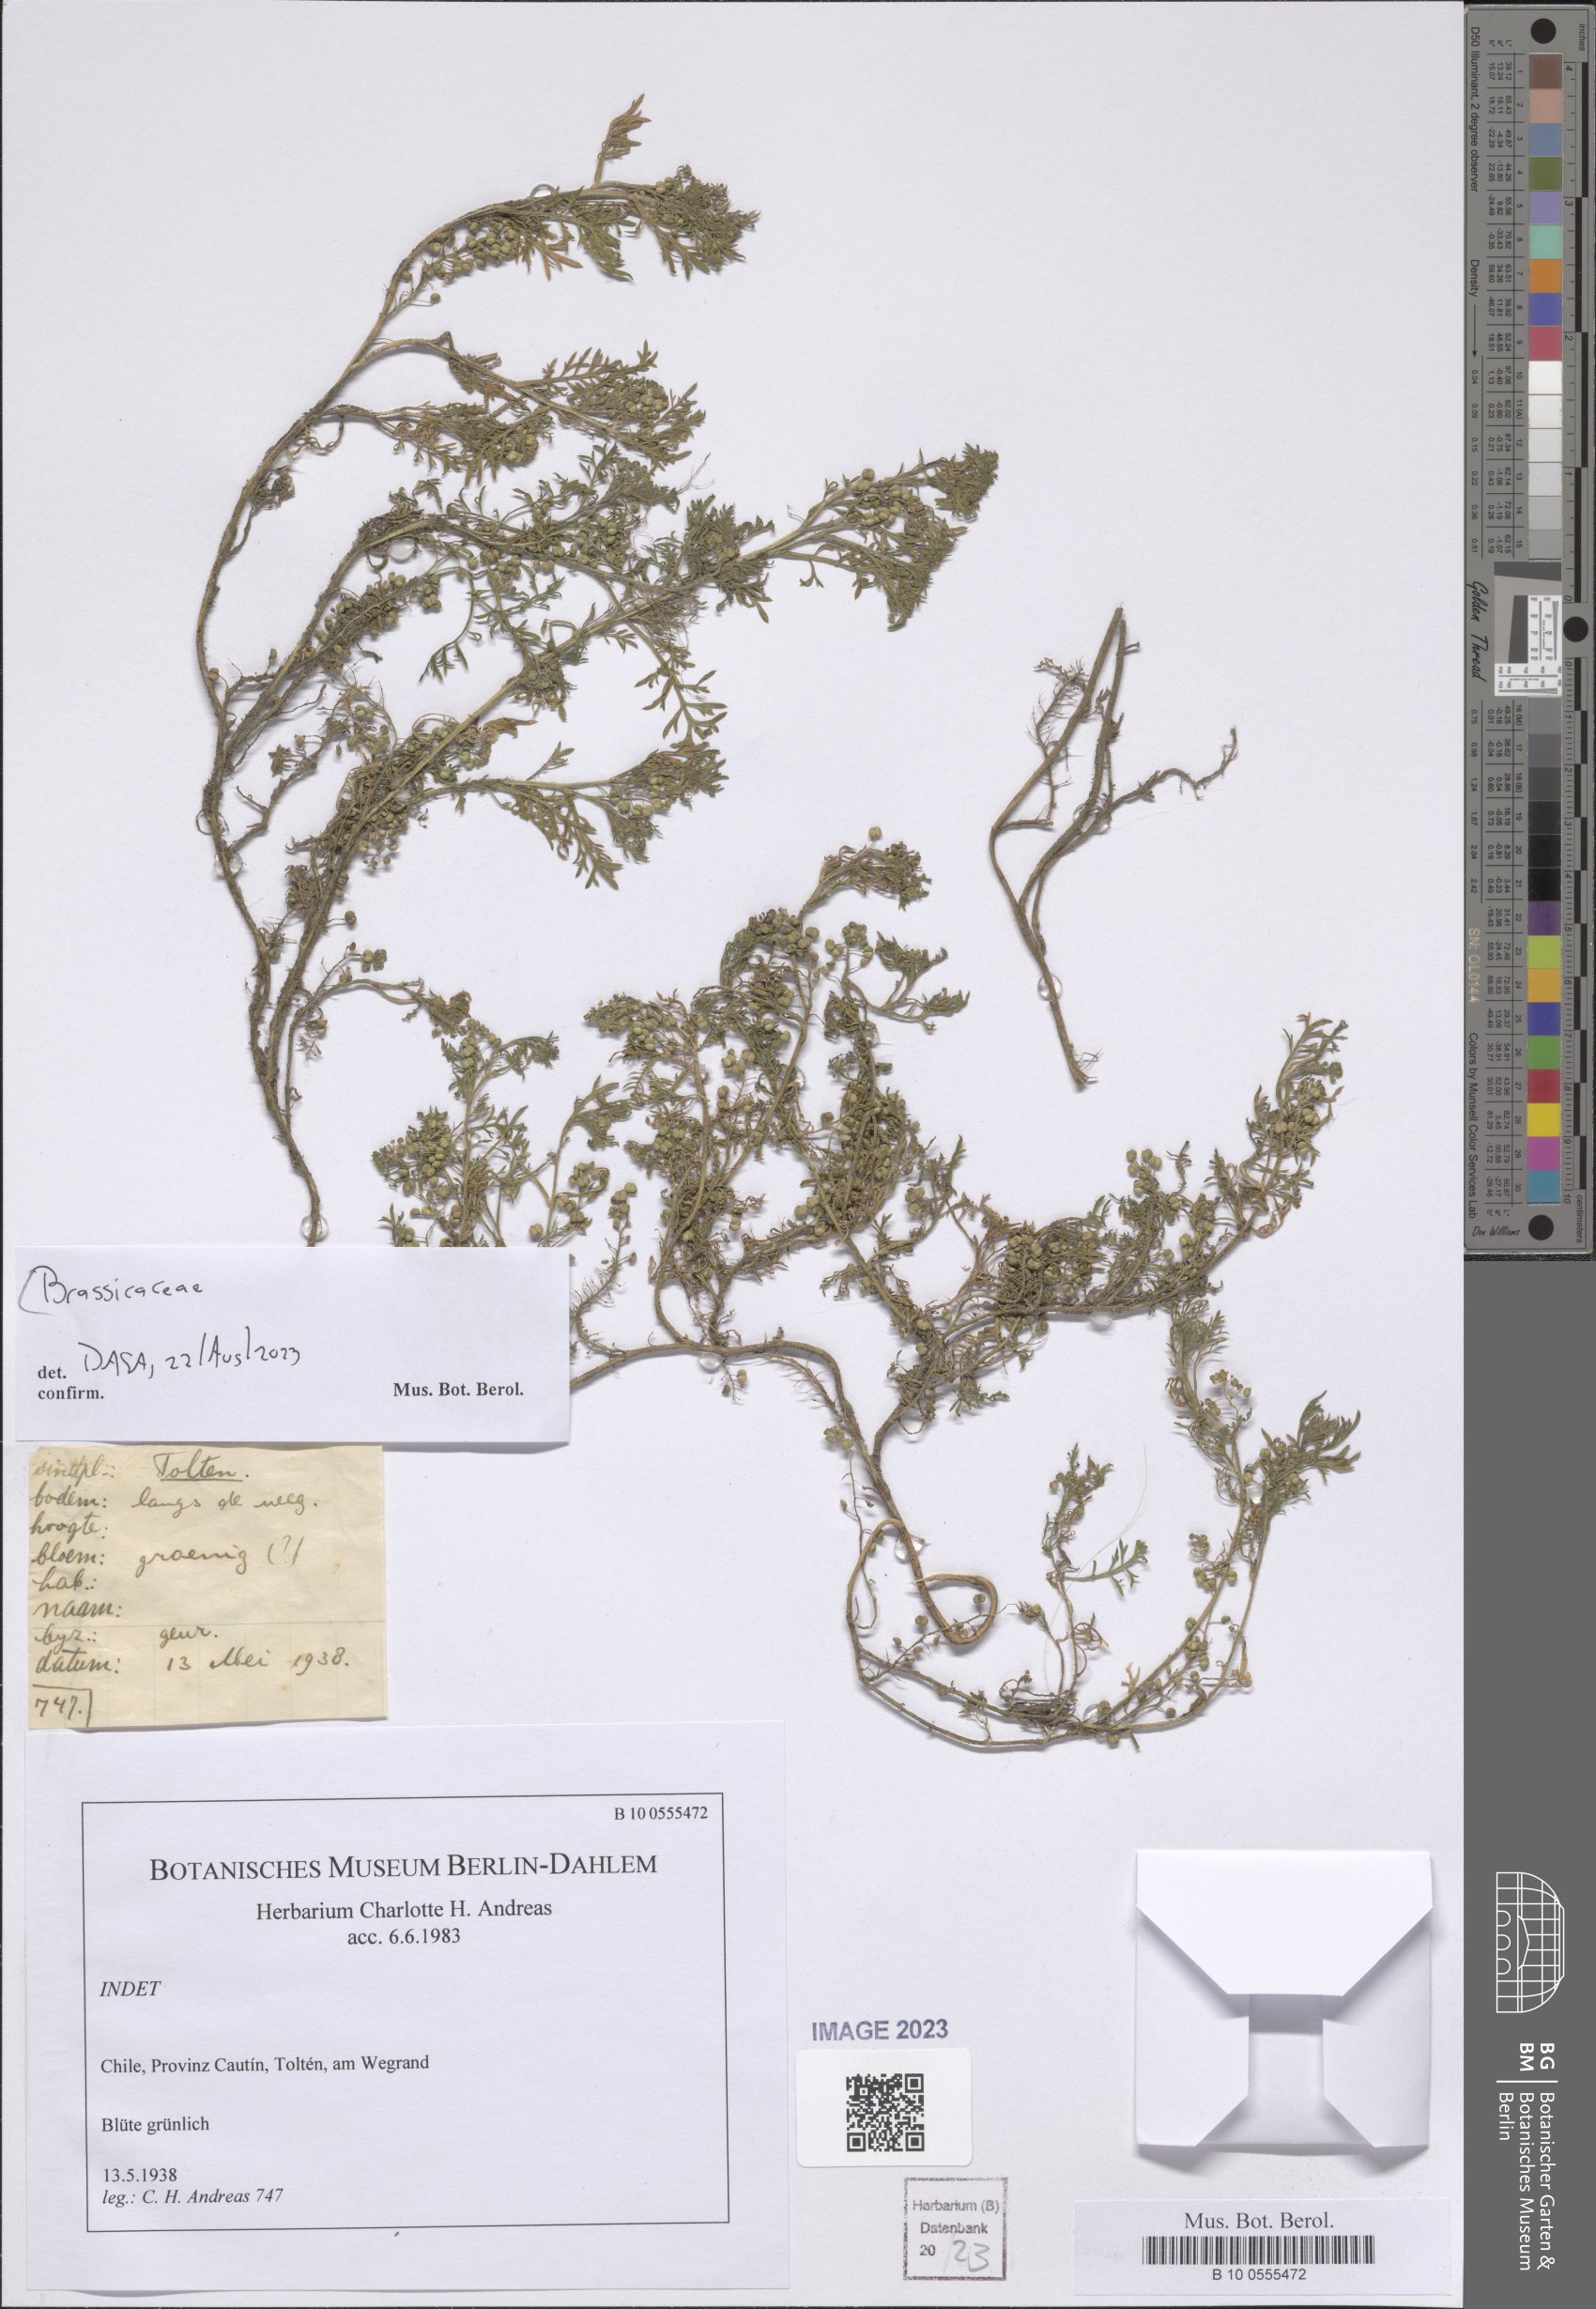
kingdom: Plantae
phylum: Tracheophyta
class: Magnoliopsida
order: Brassicales
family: Brassicaceae
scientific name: Brassicaceae
